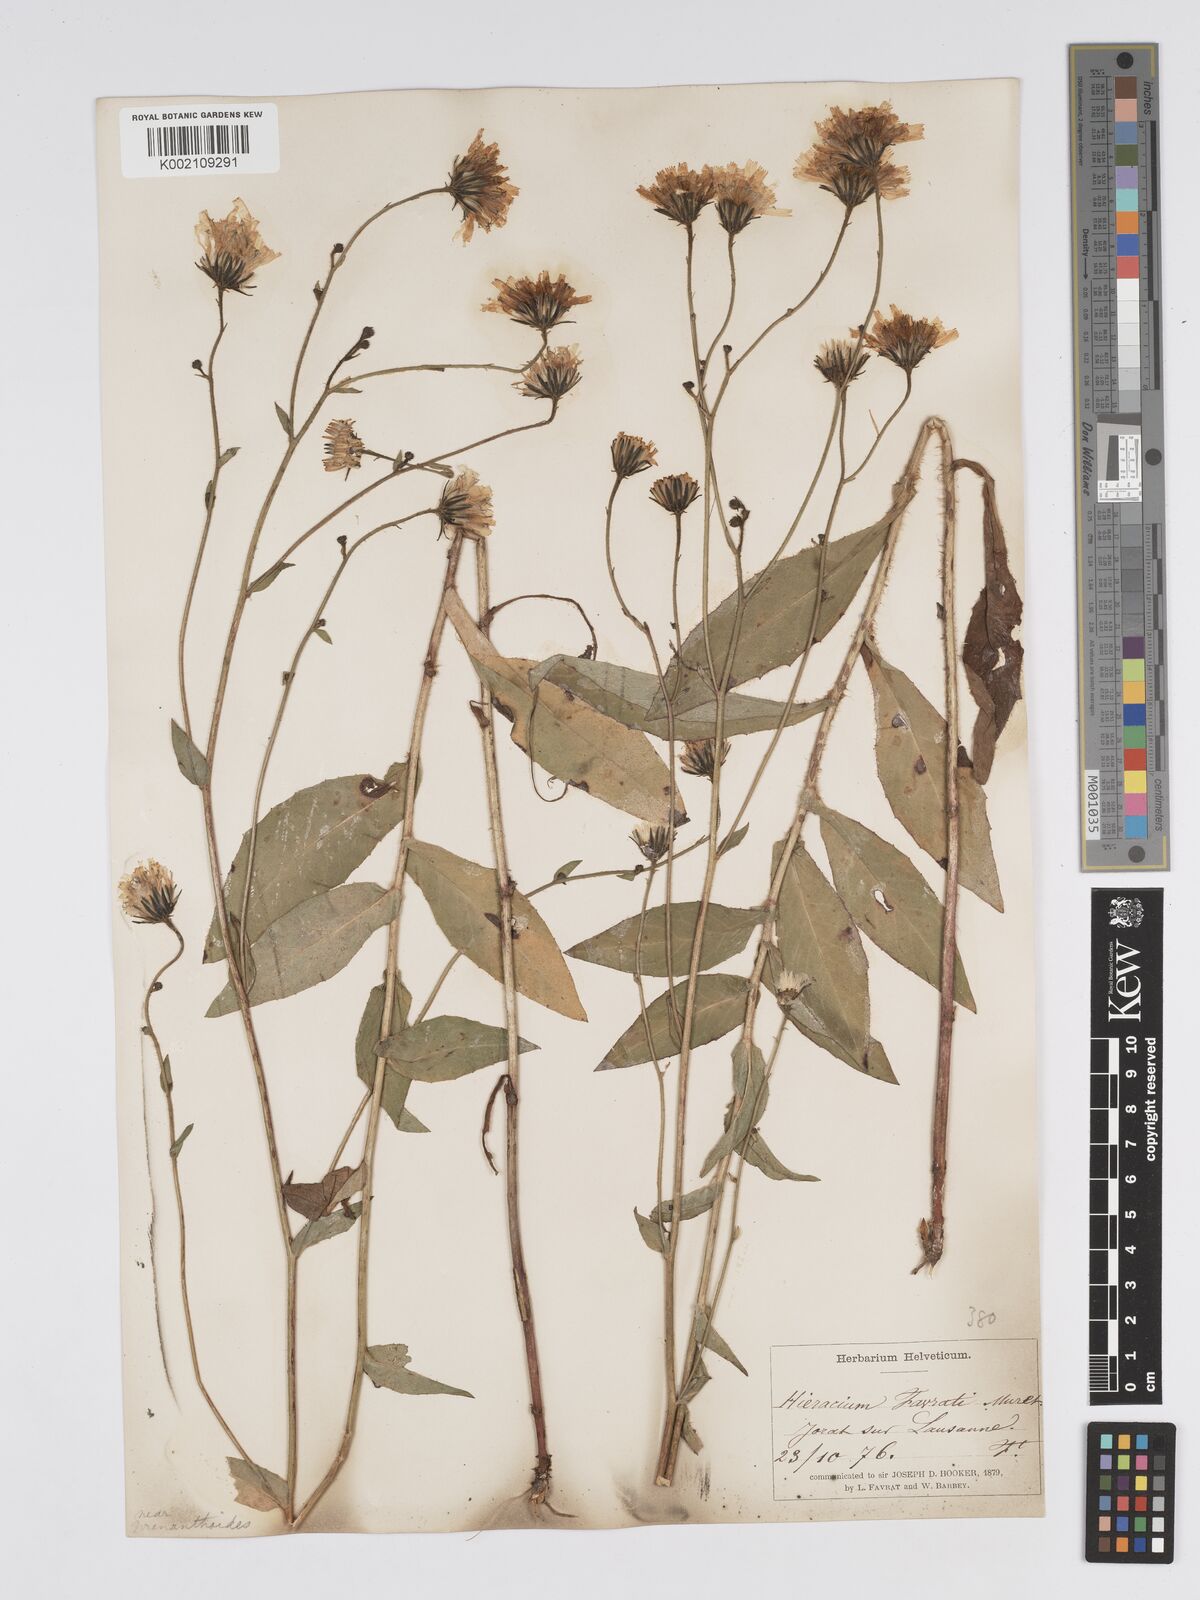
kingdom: Plantae
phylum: Tracheophyta
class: Magnoliopsida
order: Asterales
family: Asteraceae
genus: Hieracium
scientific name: Hieracium favratii
